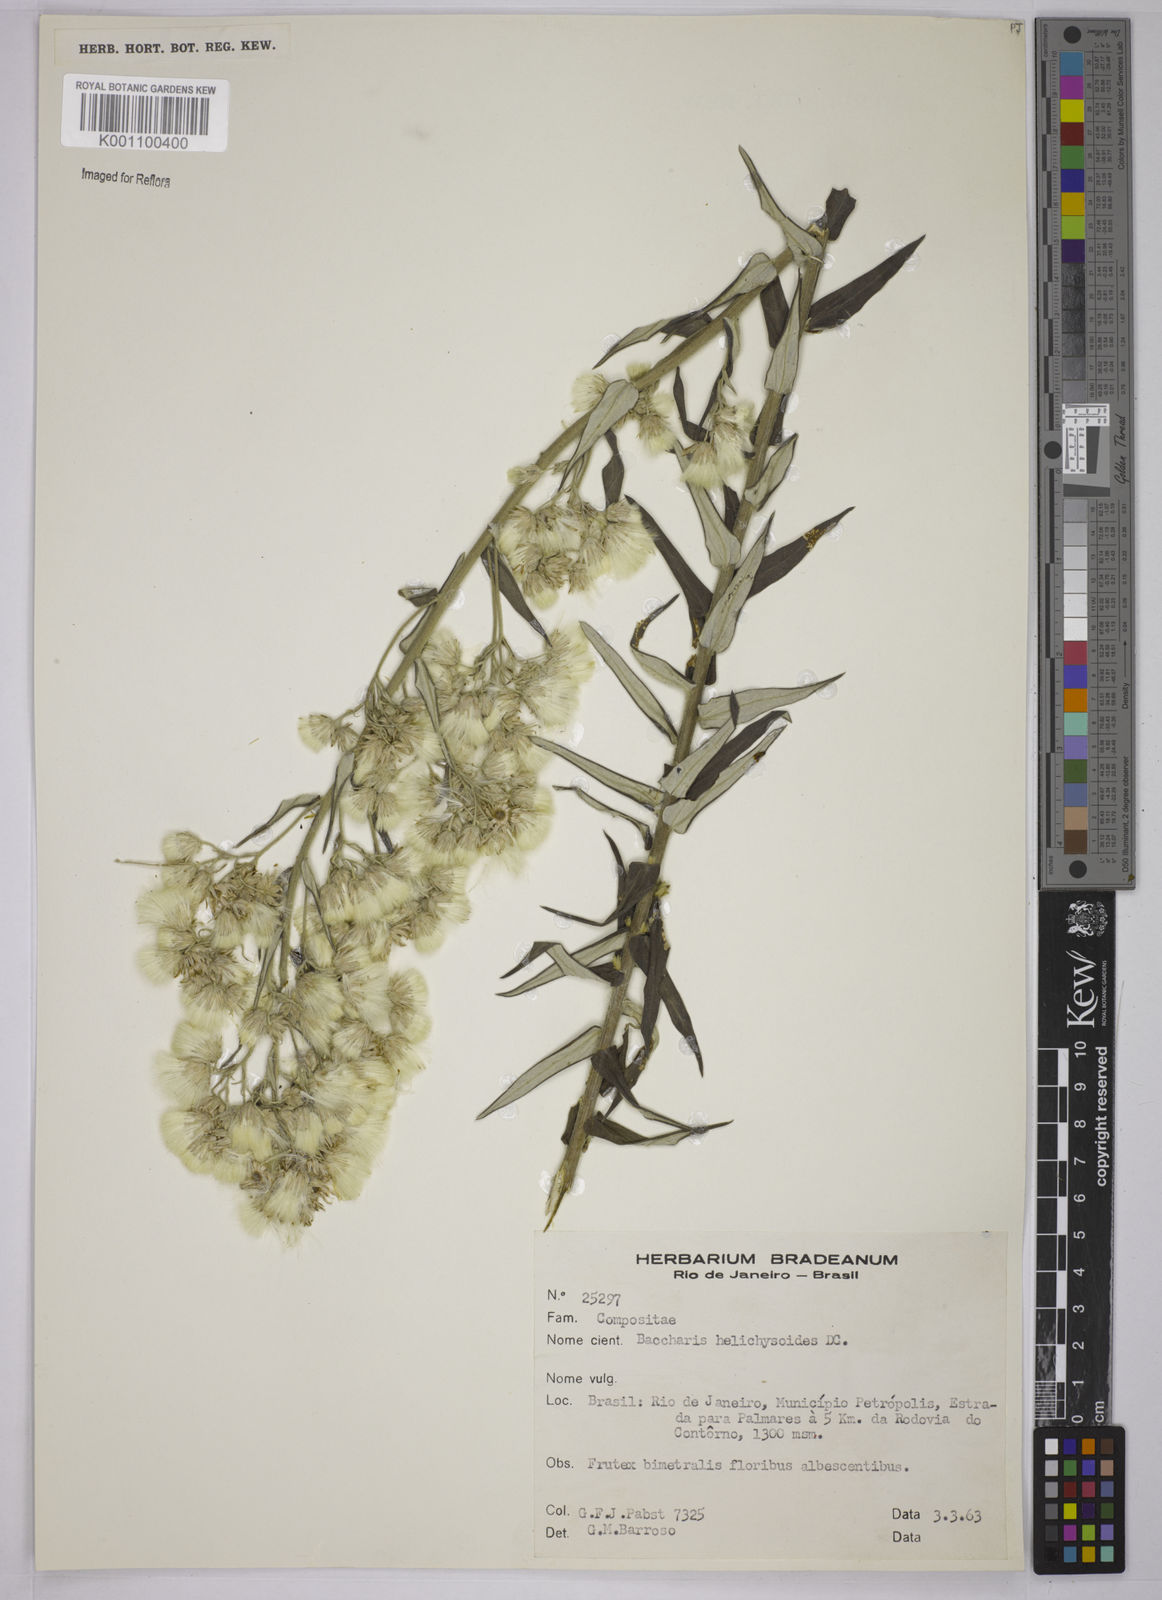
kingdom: Plantae
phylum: Tracheophyta
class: Magnoliopsida
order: Asterales
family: Asteraceae
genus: Baccharis
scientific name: Baccharis helichrysoides
